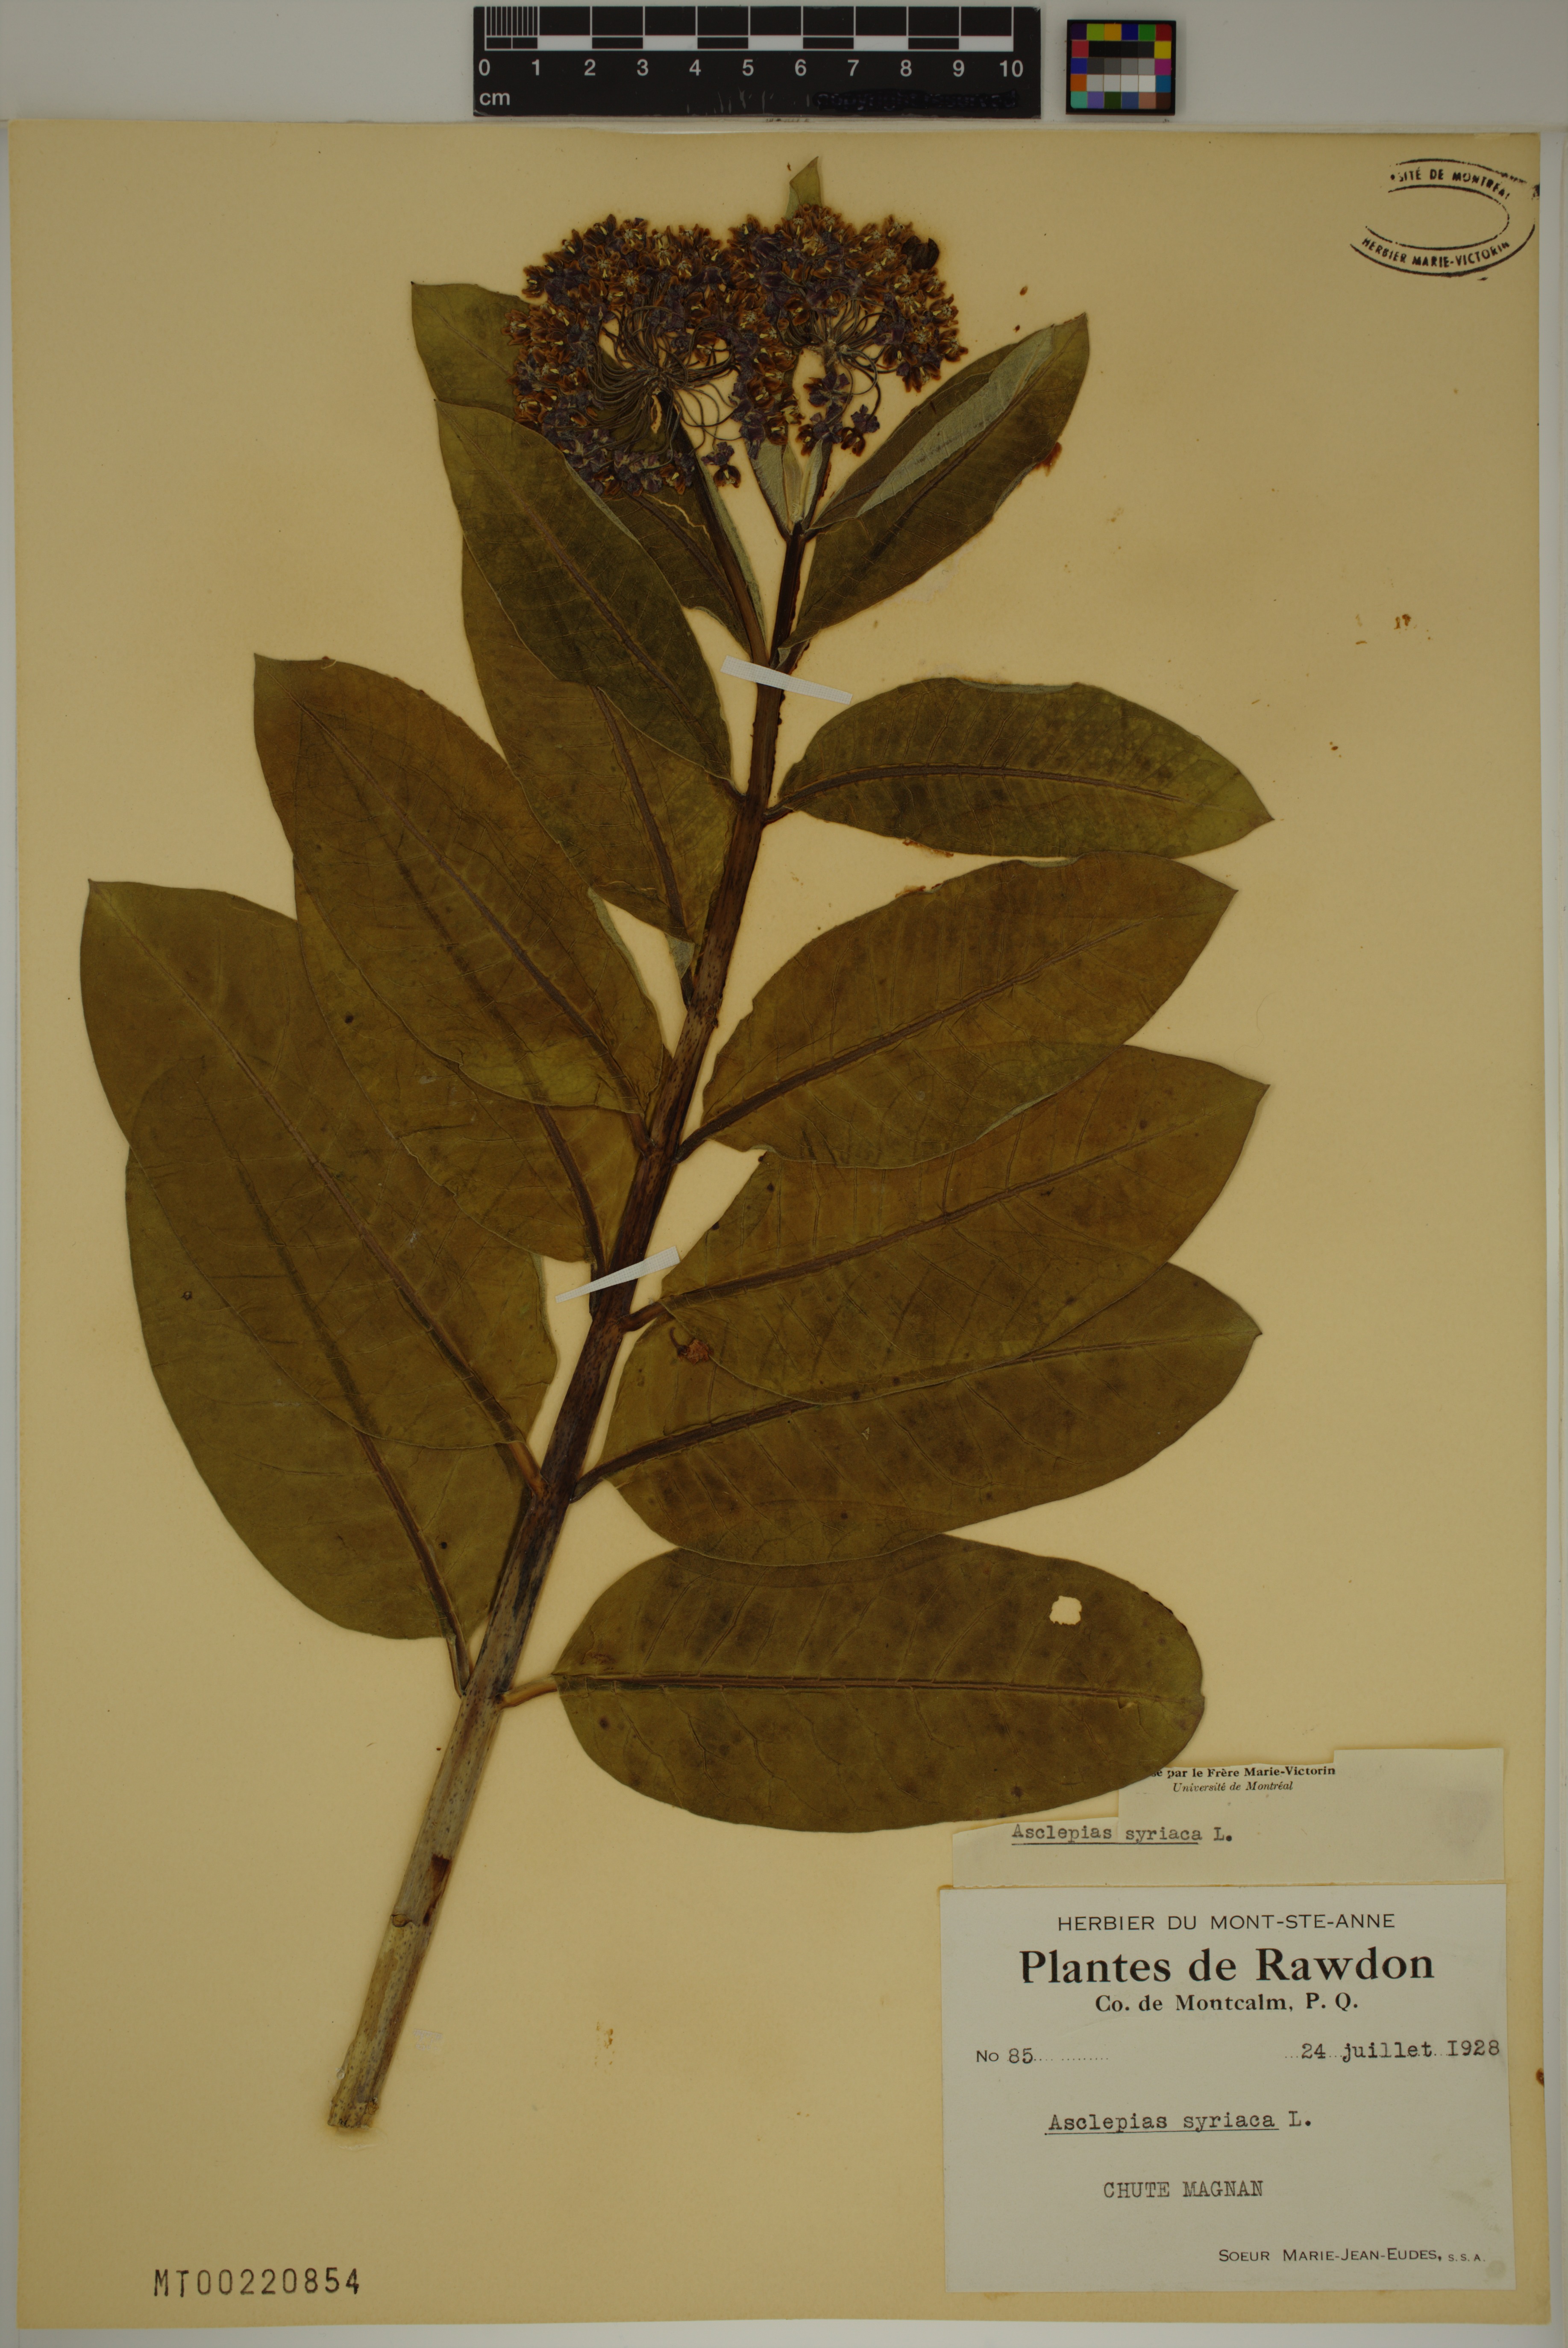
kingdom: Plantae
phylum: Tracheophyta
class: Magnoliopsida
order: Gentianales
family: Apocynaceae
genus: Asclepias
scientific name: Asclepias syriaca
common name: Common milkweed
